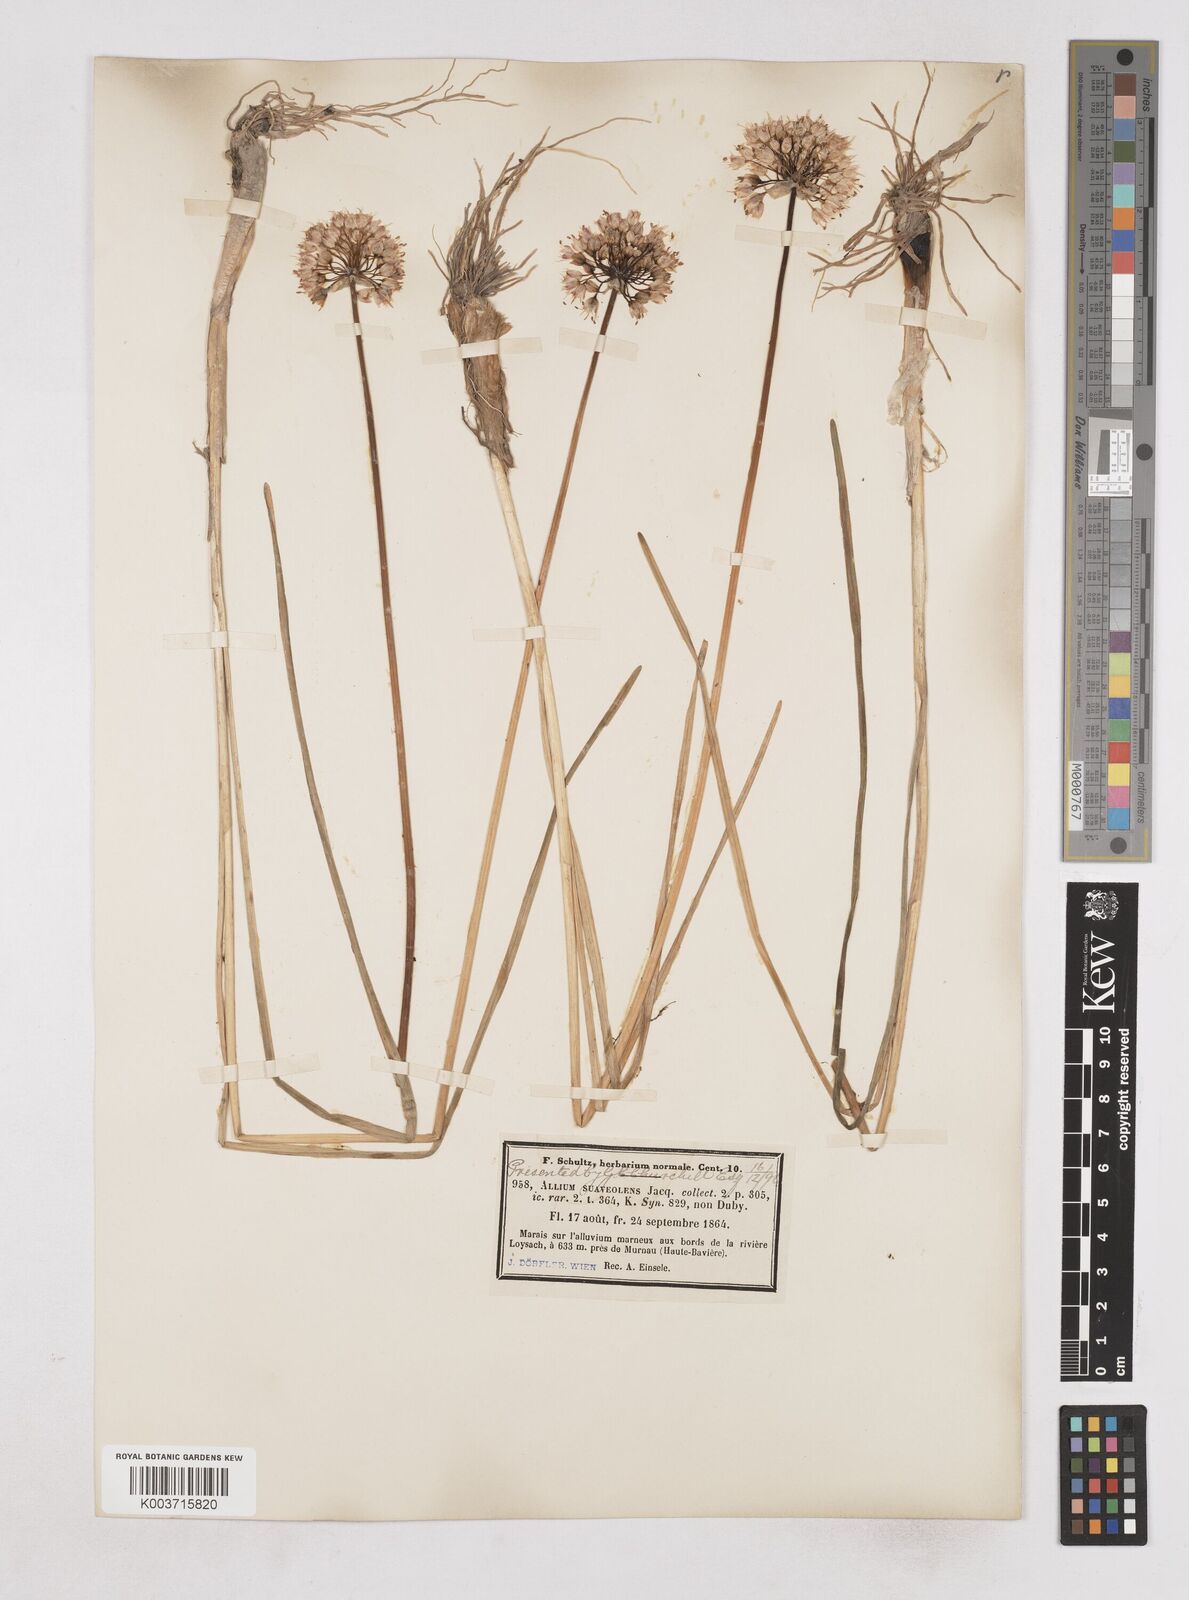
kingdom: Plantae
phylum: Tracheophyta
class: Liliopsida
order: Asparagales
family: Amaryllidaceae
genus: Allium
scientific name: Allium suaveolens
